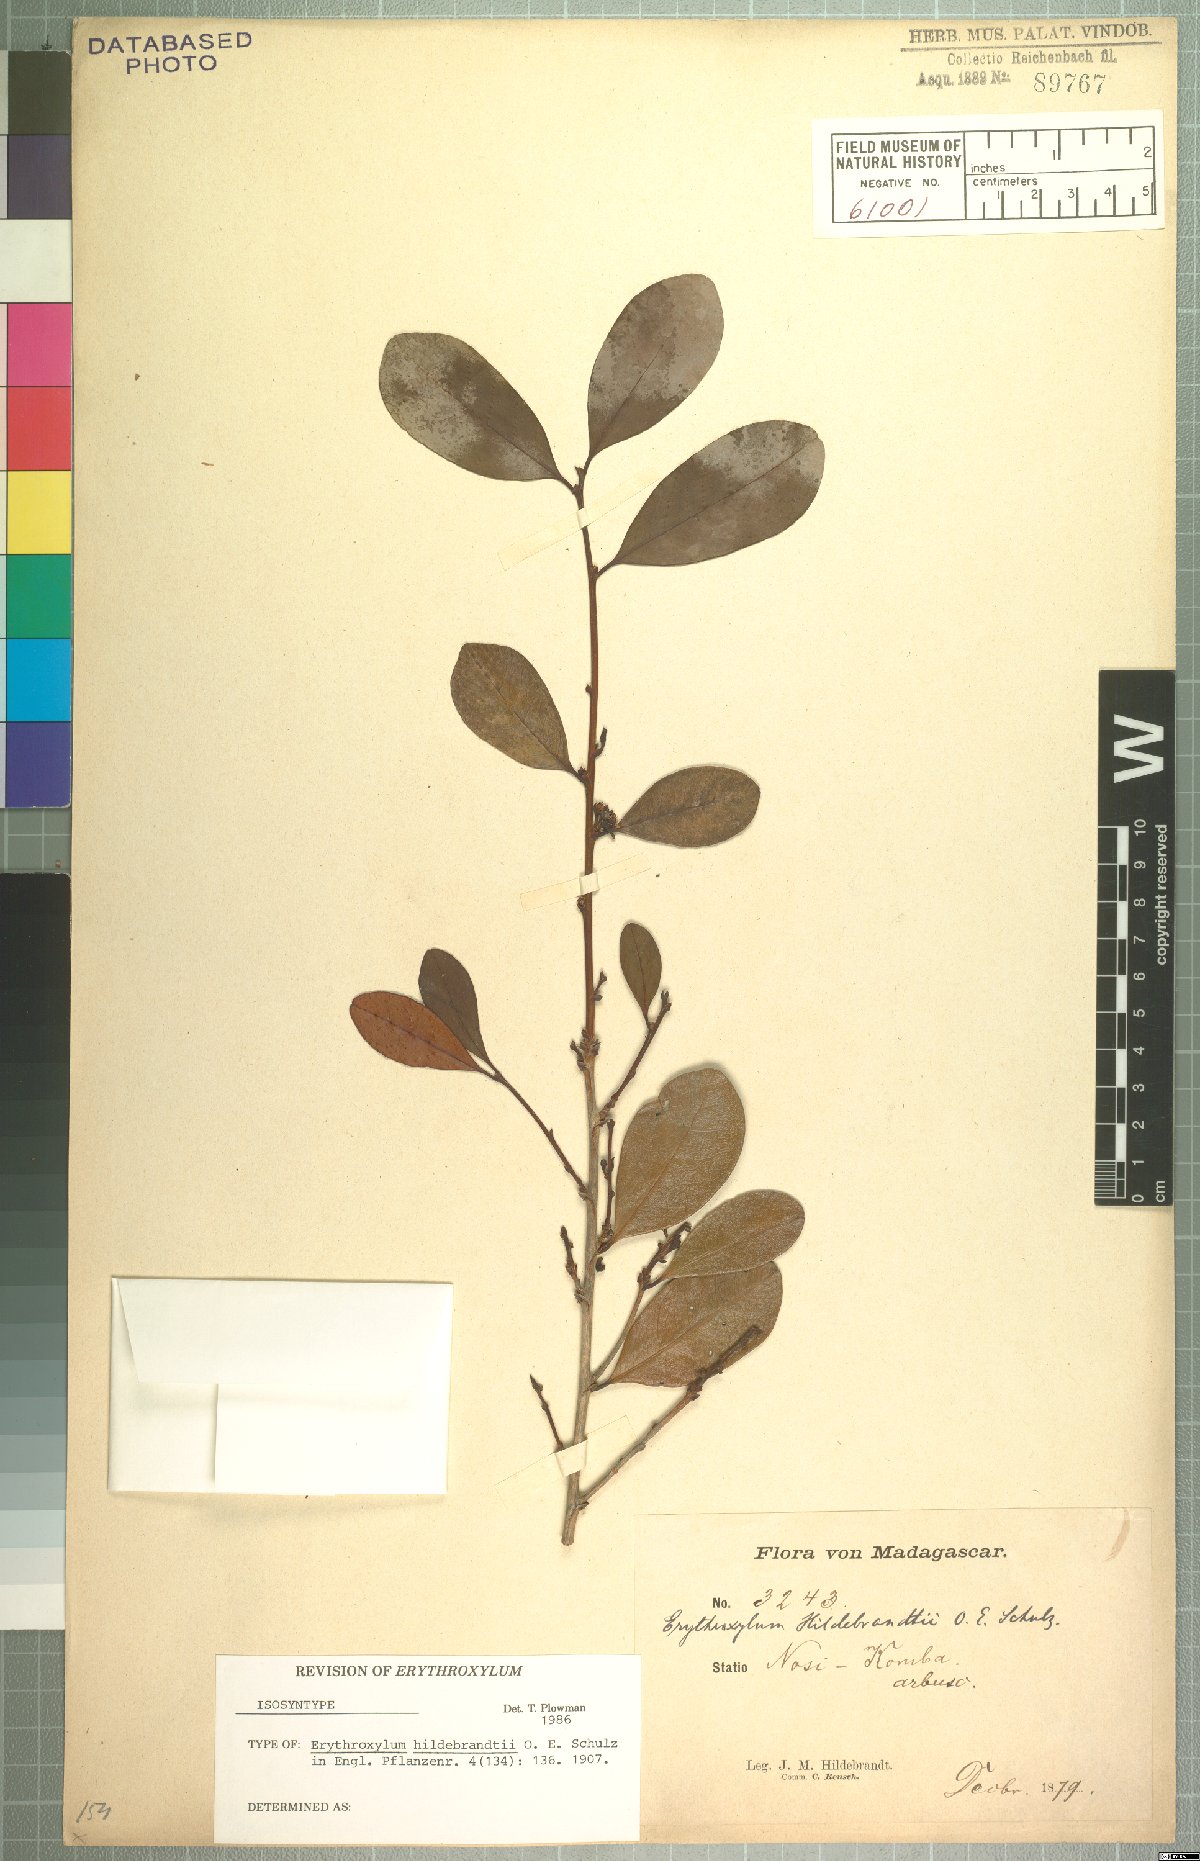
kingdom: Plantae
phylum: Tracheophyta
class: Magnoliopsida
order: Malpighiales
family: Erythroxylaceae
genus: Erythroxylum
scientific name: Erythroxylum pyrifolium
